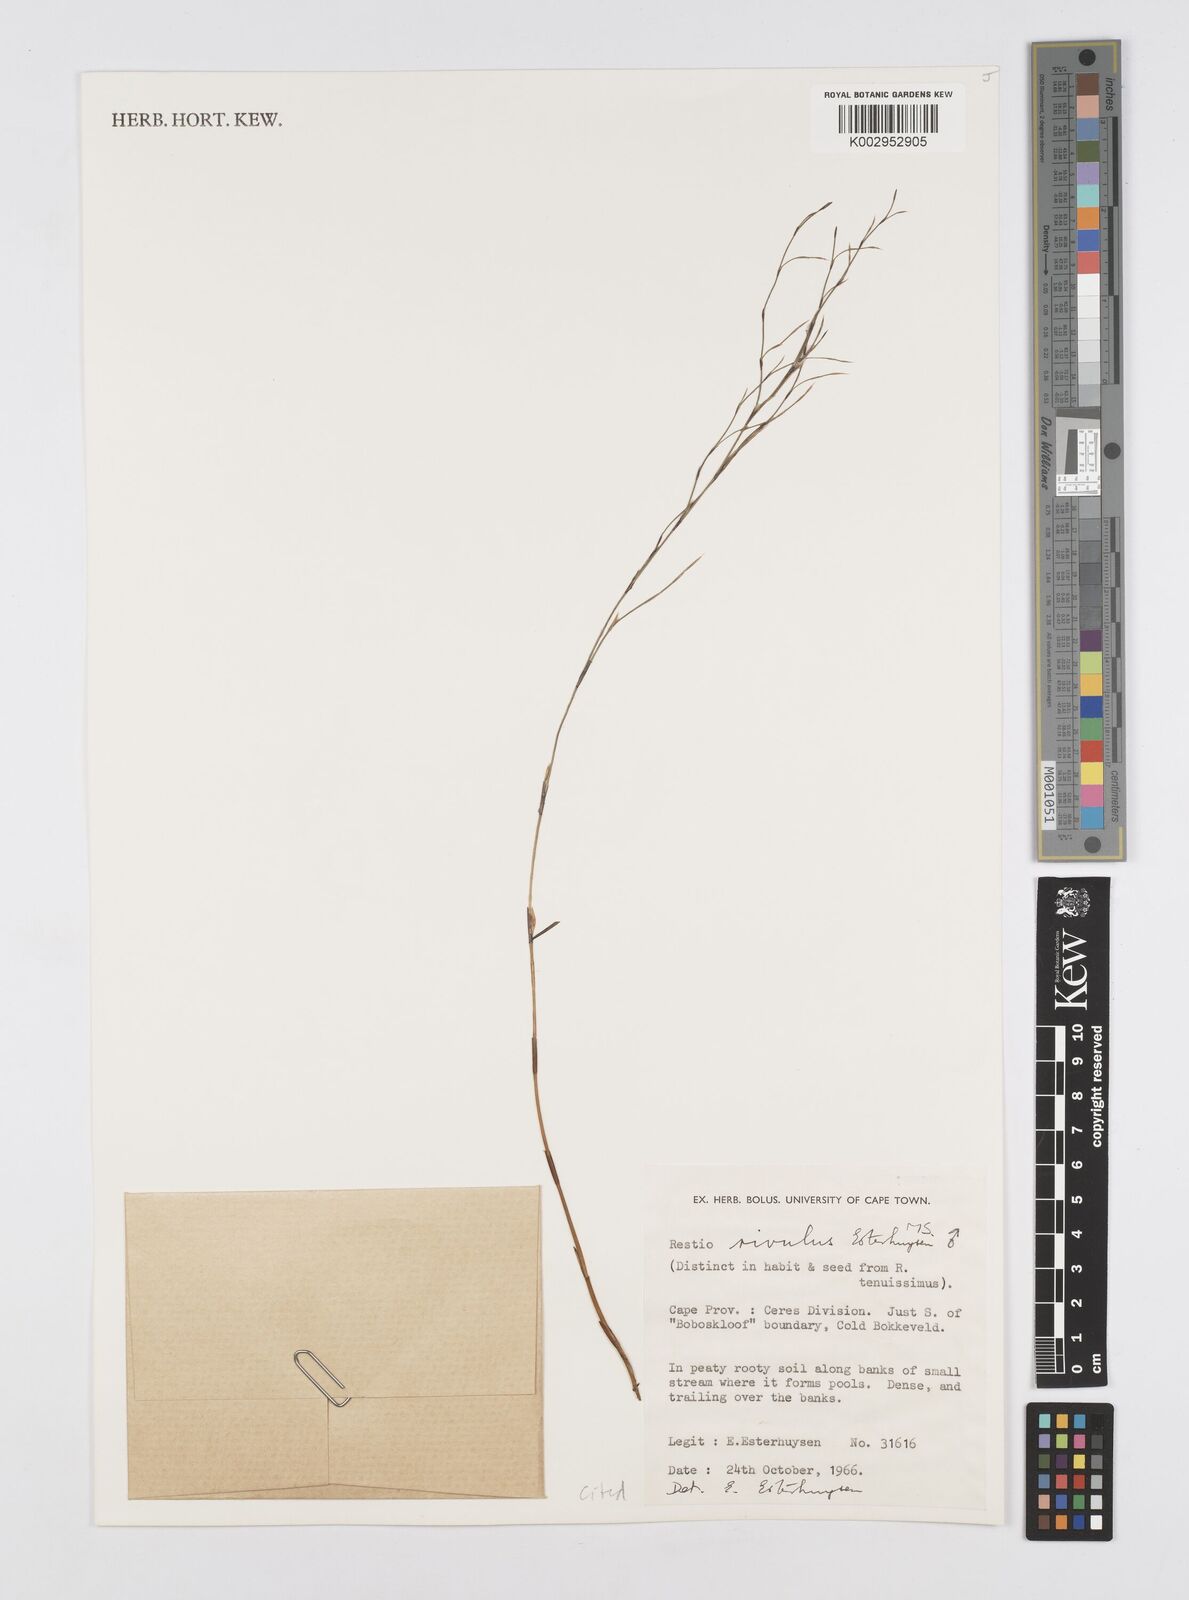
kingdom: Plantae
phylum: Tracheophyta
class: Liliopsida
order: Poales
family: Restionaceae
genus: Restio
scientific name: Restio rivulus
